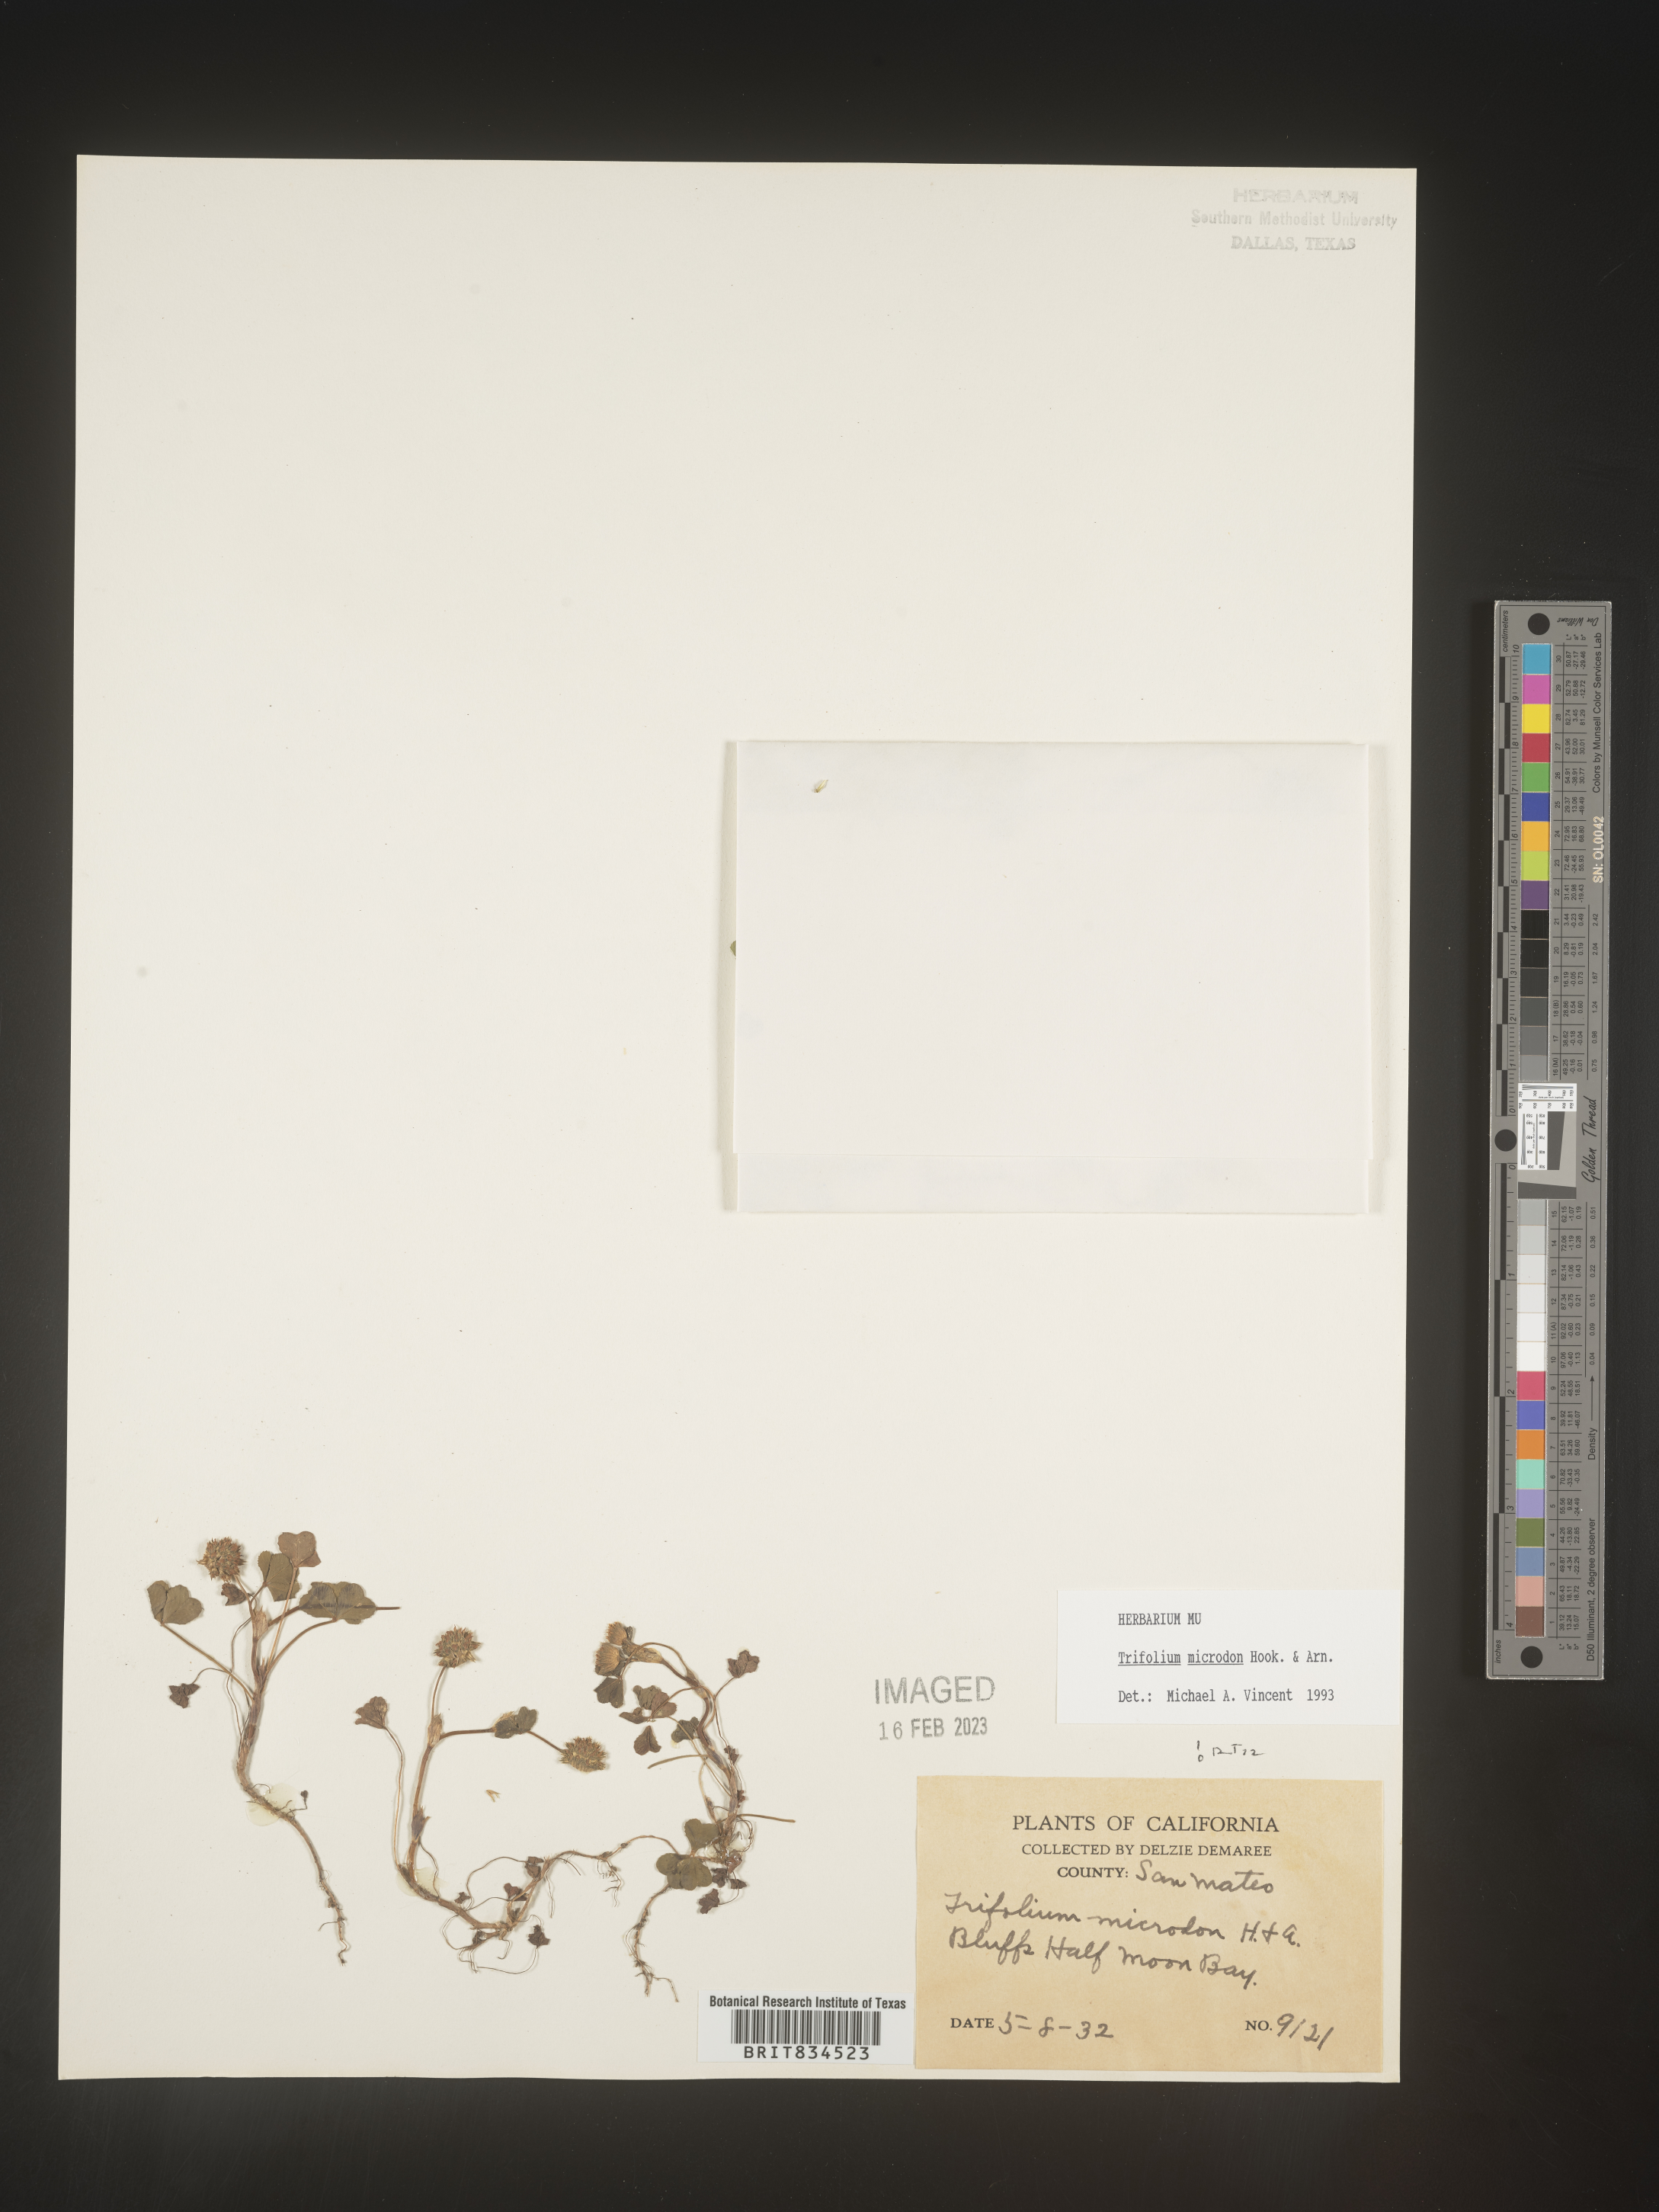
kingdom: Plantae
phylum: Tracheophyta
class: Magnoliopsida
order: Fabales
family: Fabaceae
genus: Trifolium
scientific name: Trifolium
